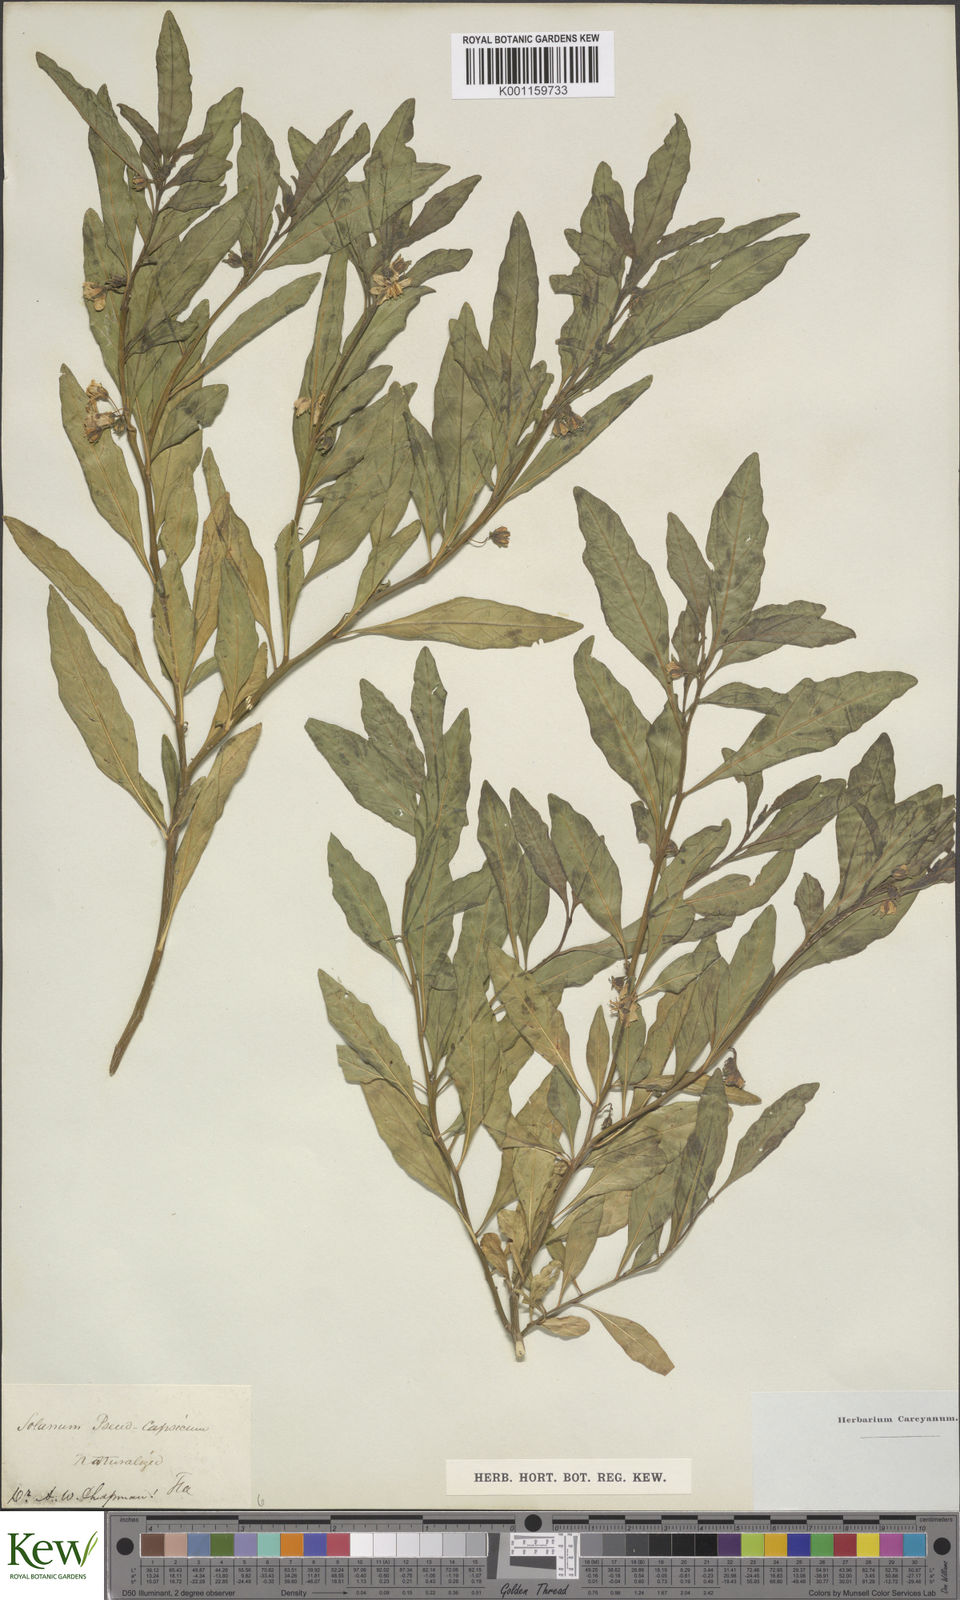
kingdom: Plantae
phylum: Tracheophyta
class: Magnoliopsida
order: Solanales
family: Solanaceae
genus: Solanum
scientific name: Solanum pseudocapsicum
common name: Jerusalem cherry
